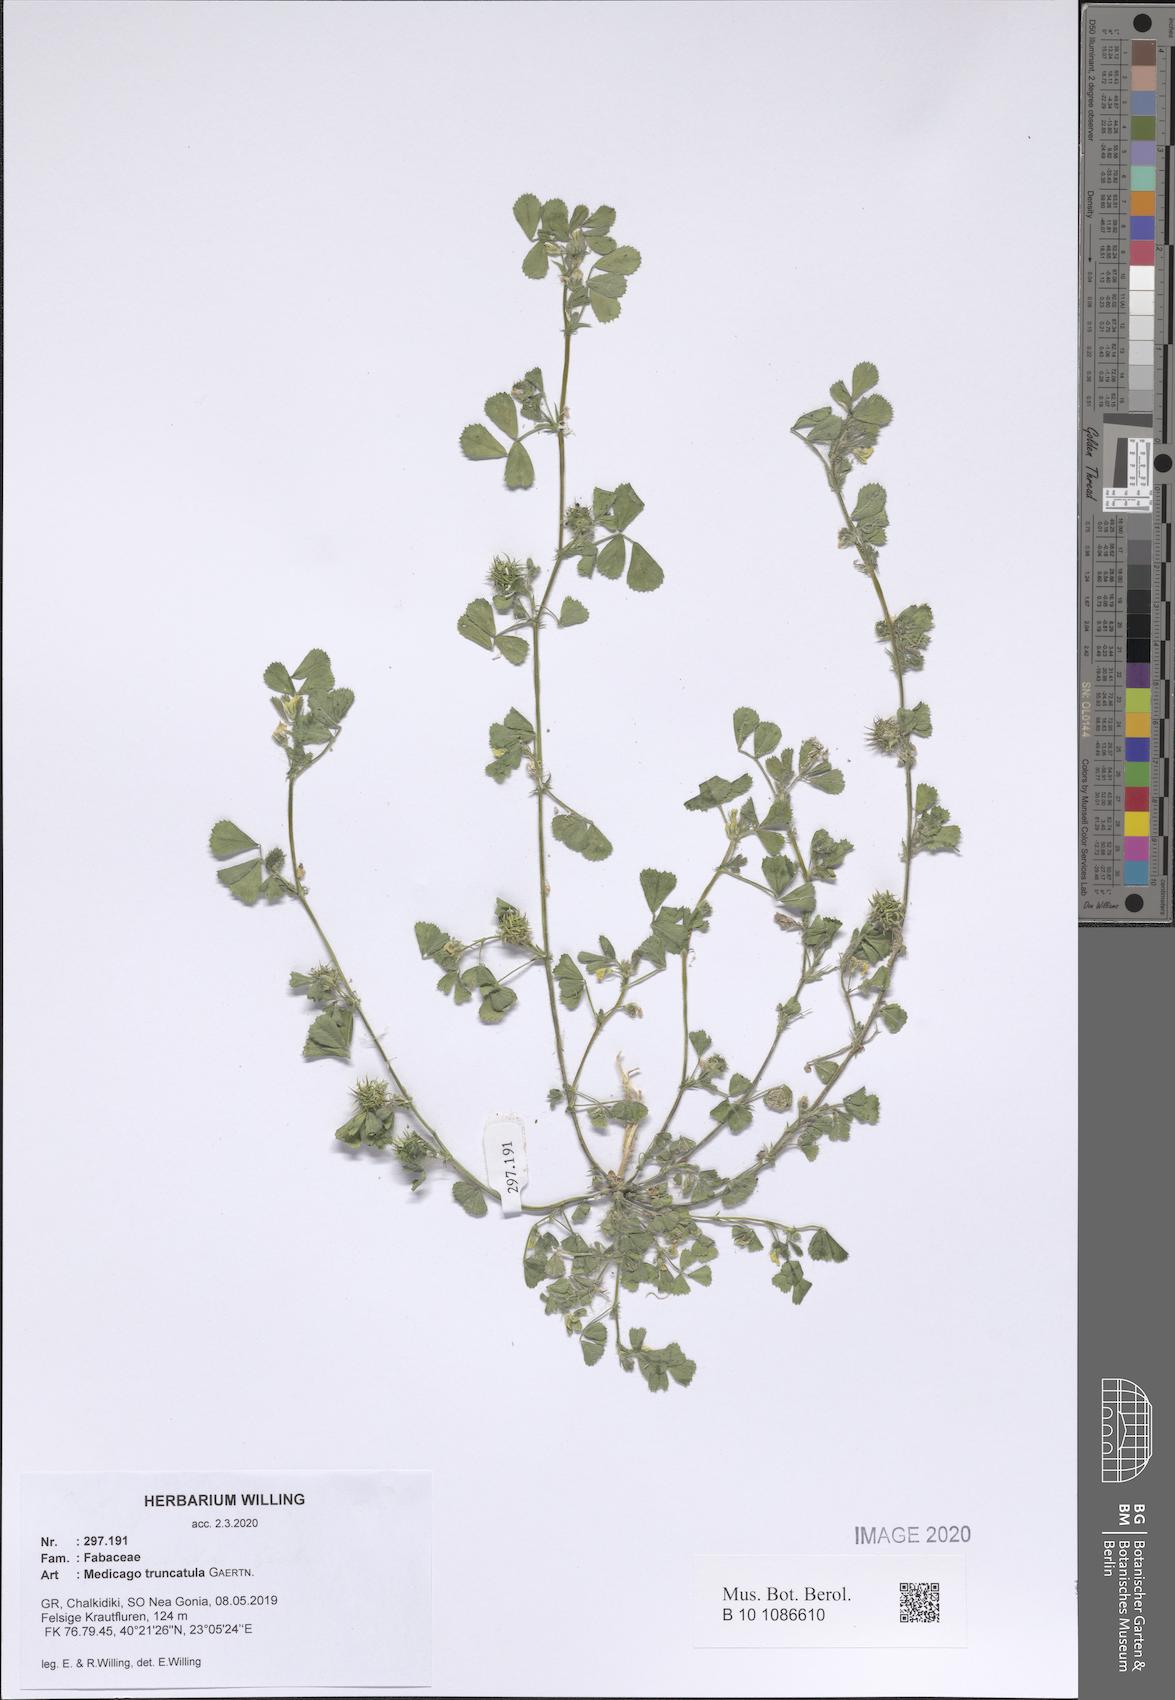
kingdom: Plantae
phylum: Tracheophyta
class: Magnoliopsida
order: Fabales
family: Fabaceae
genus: Medicago
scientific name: Medicago truncatula
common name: Strong-spined medick
